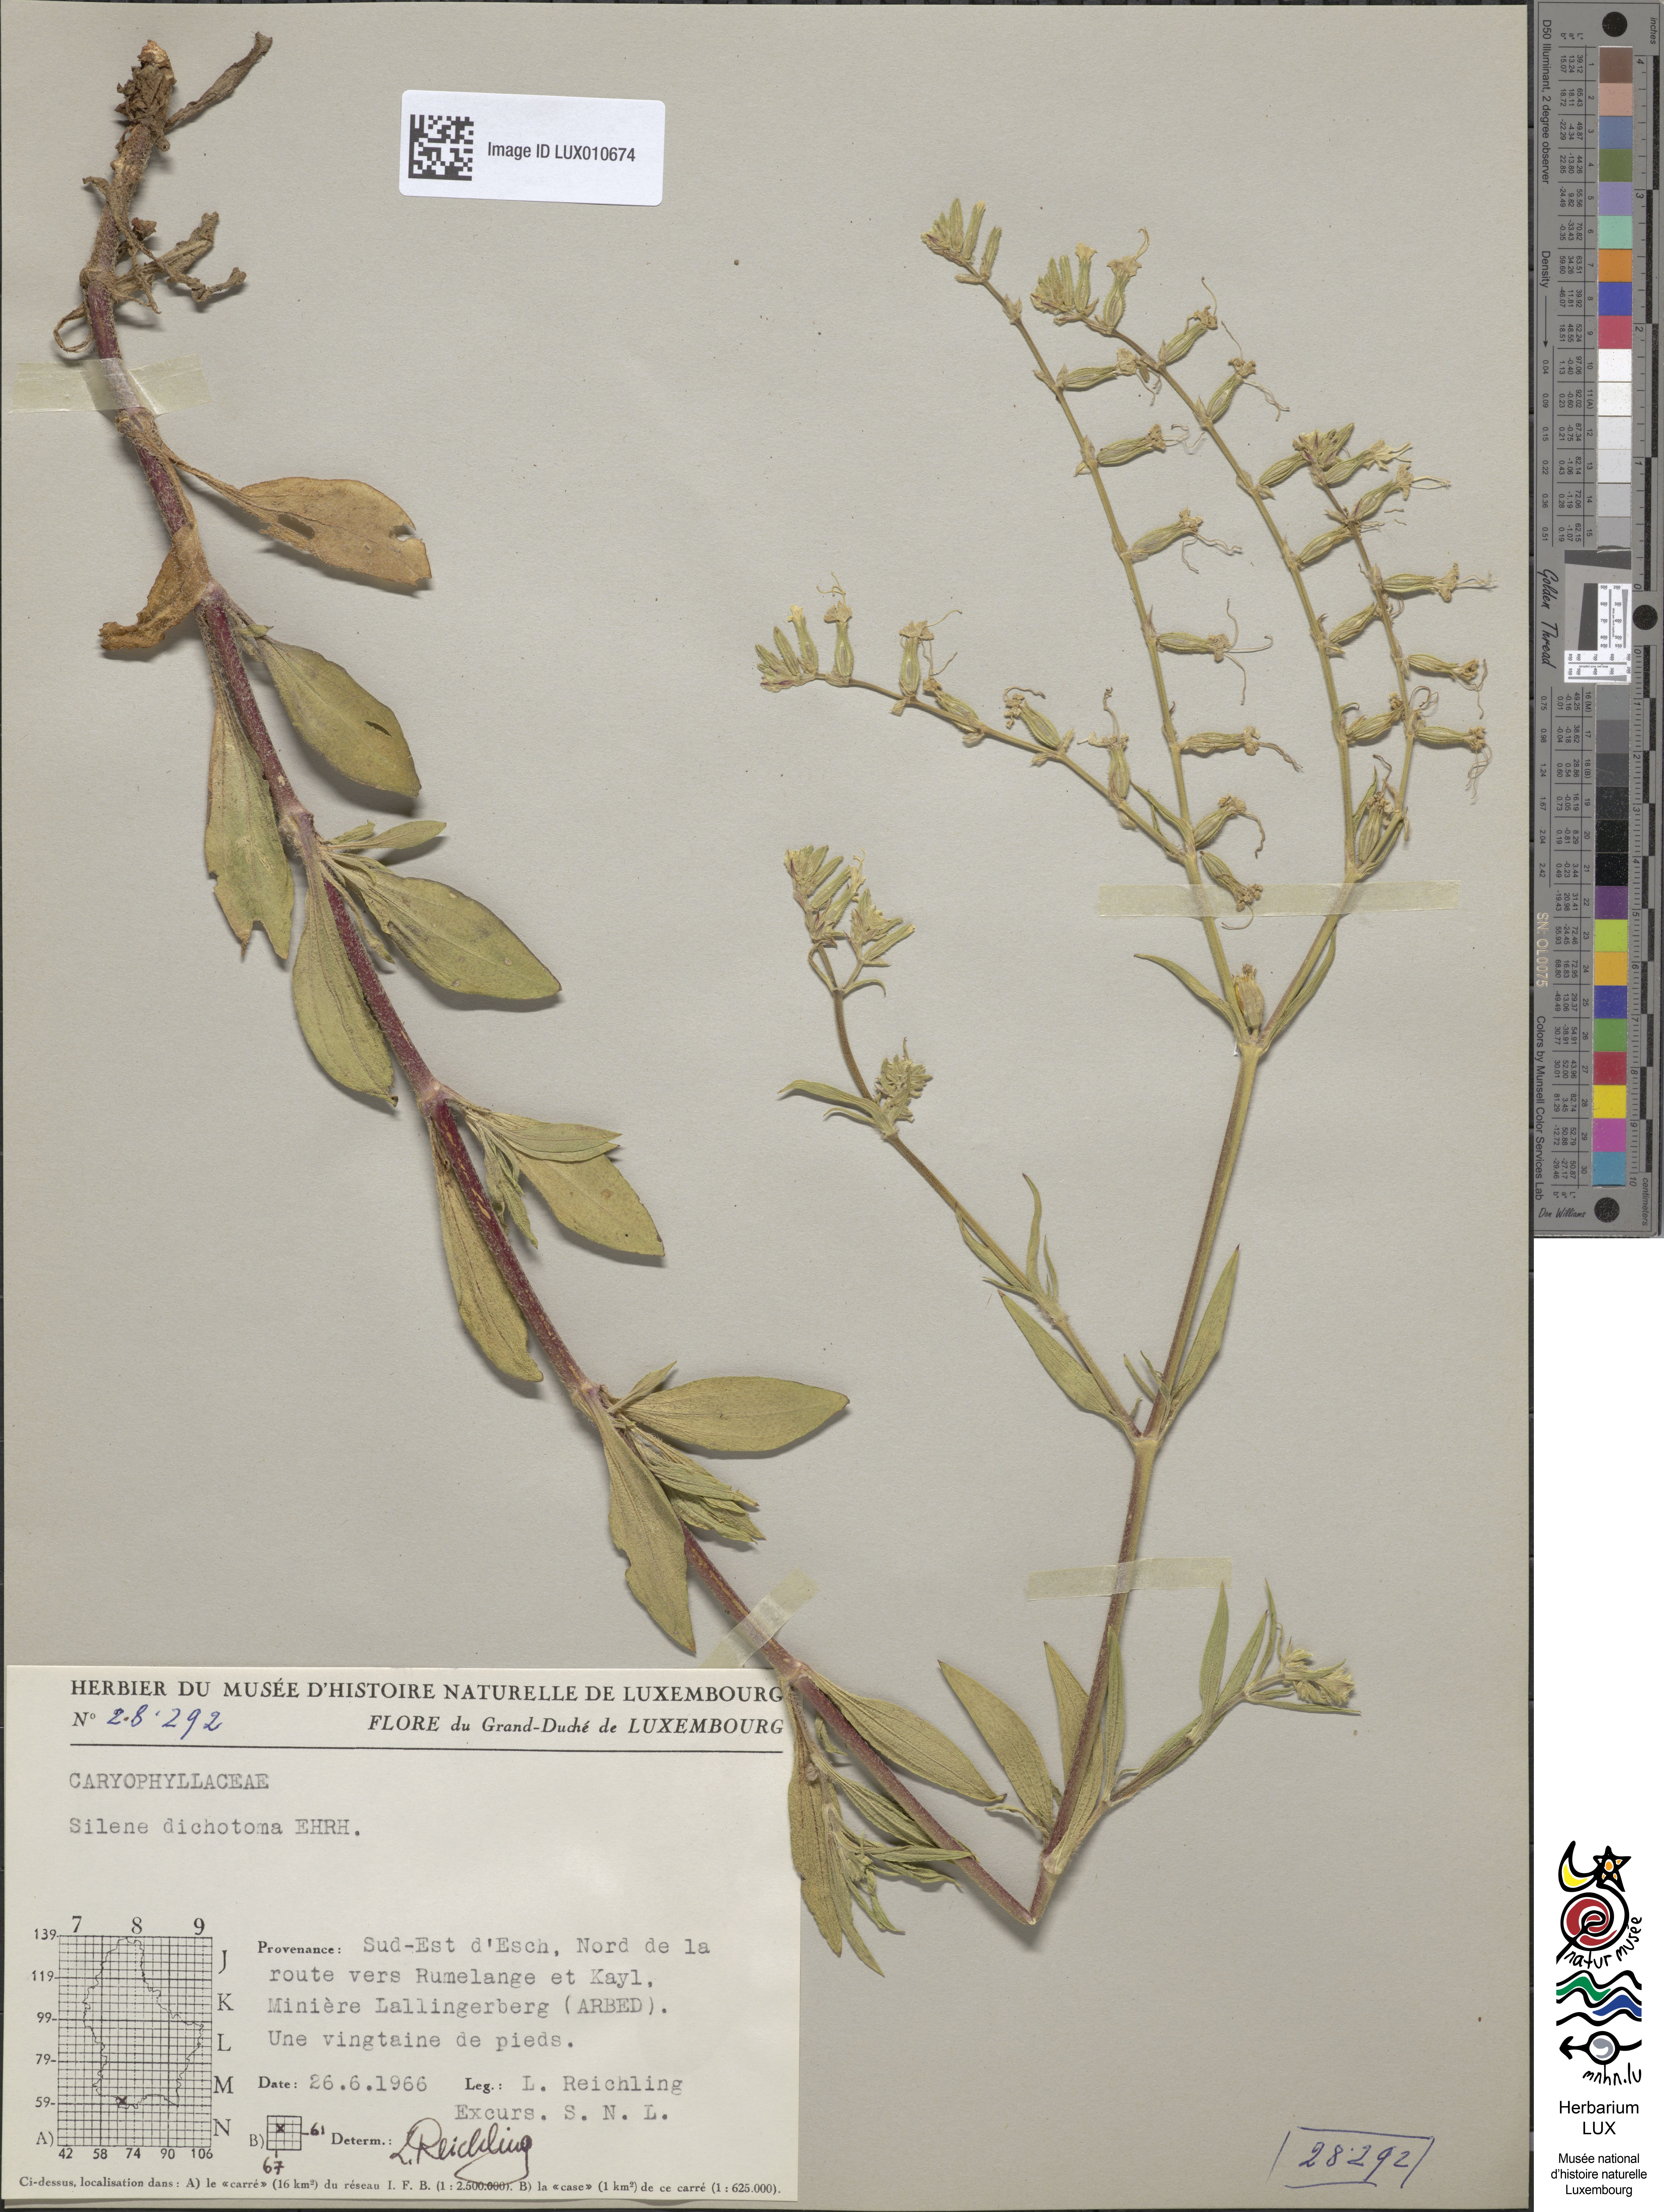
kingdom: Plantae
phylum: Tracheophyta
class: Magnoliopsida
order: Caryophyllales
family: Caryophyllaceae
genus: Silene
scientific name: Silene dichotoma
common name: Forked catchfly
